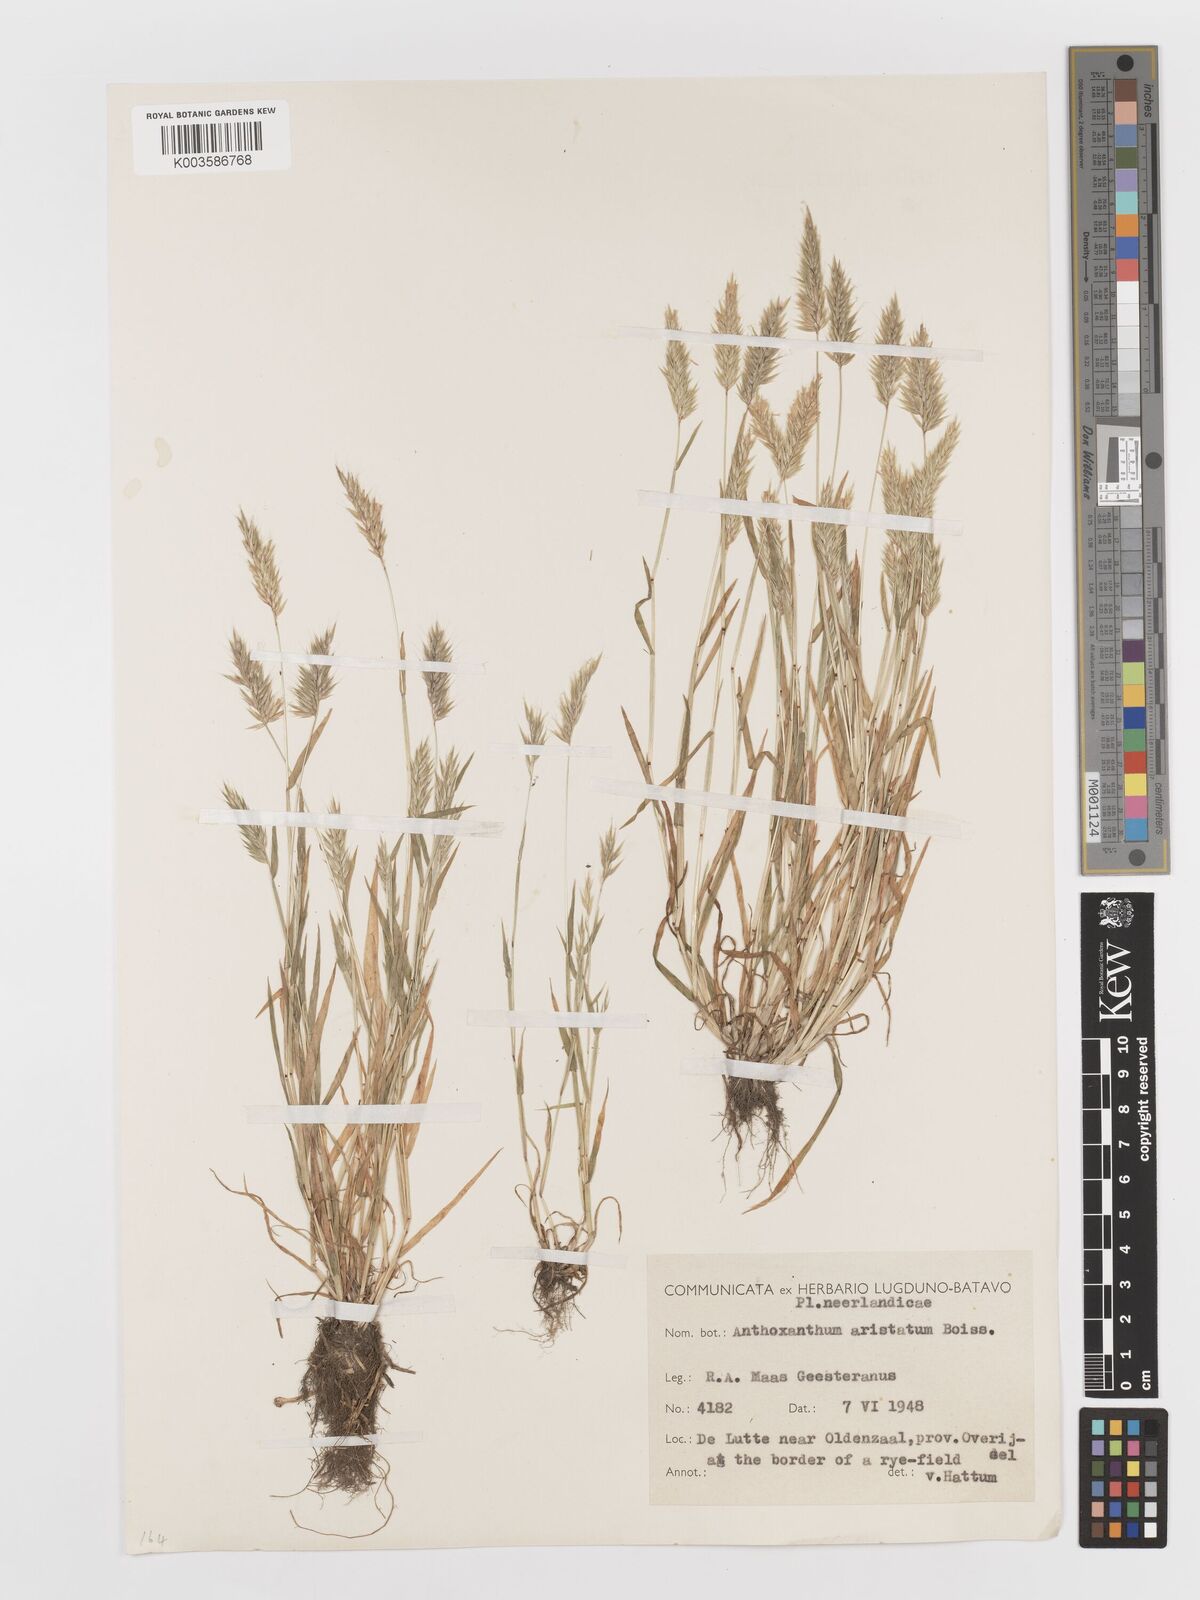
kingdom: Plantae
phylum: Tracheophyta
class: Liliopsida
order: Poales
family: Poaceae
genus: Anthoxanthum
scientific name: Anthoxanthum aristatum
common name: Annual vernal-grass
